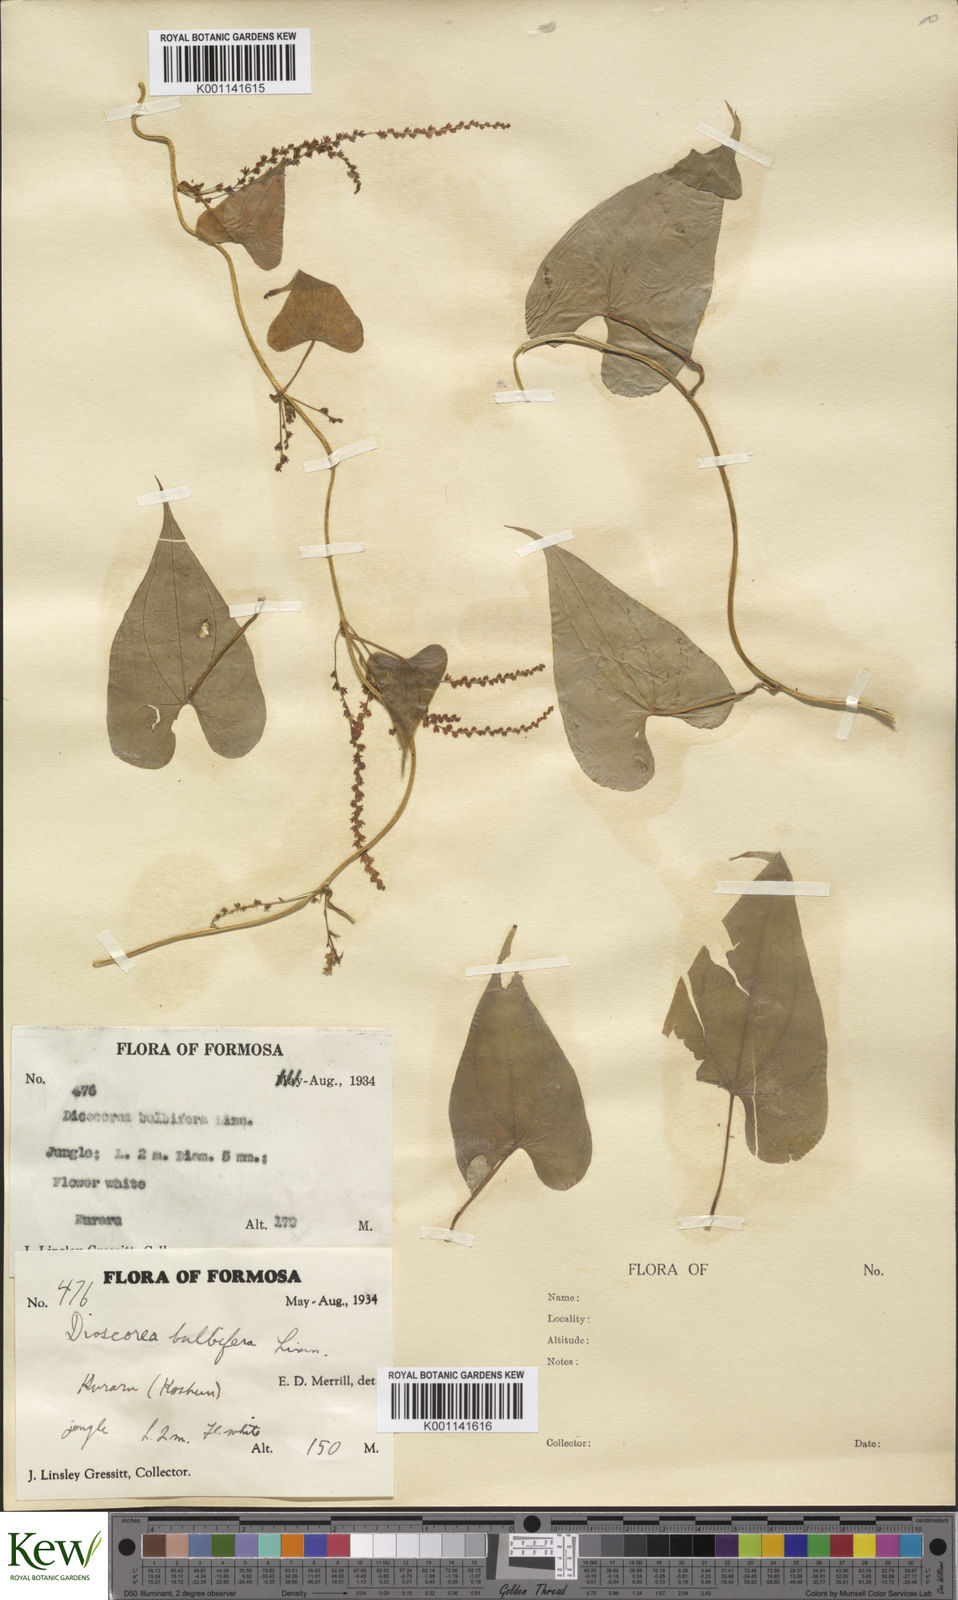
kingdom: Plantae
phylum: Tracheophyta
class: Liliopsida
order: Dioscoreales
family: Dioscoreaceae
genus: Dioscorea
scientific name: Dioscorea bulbifera
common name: Air yam
